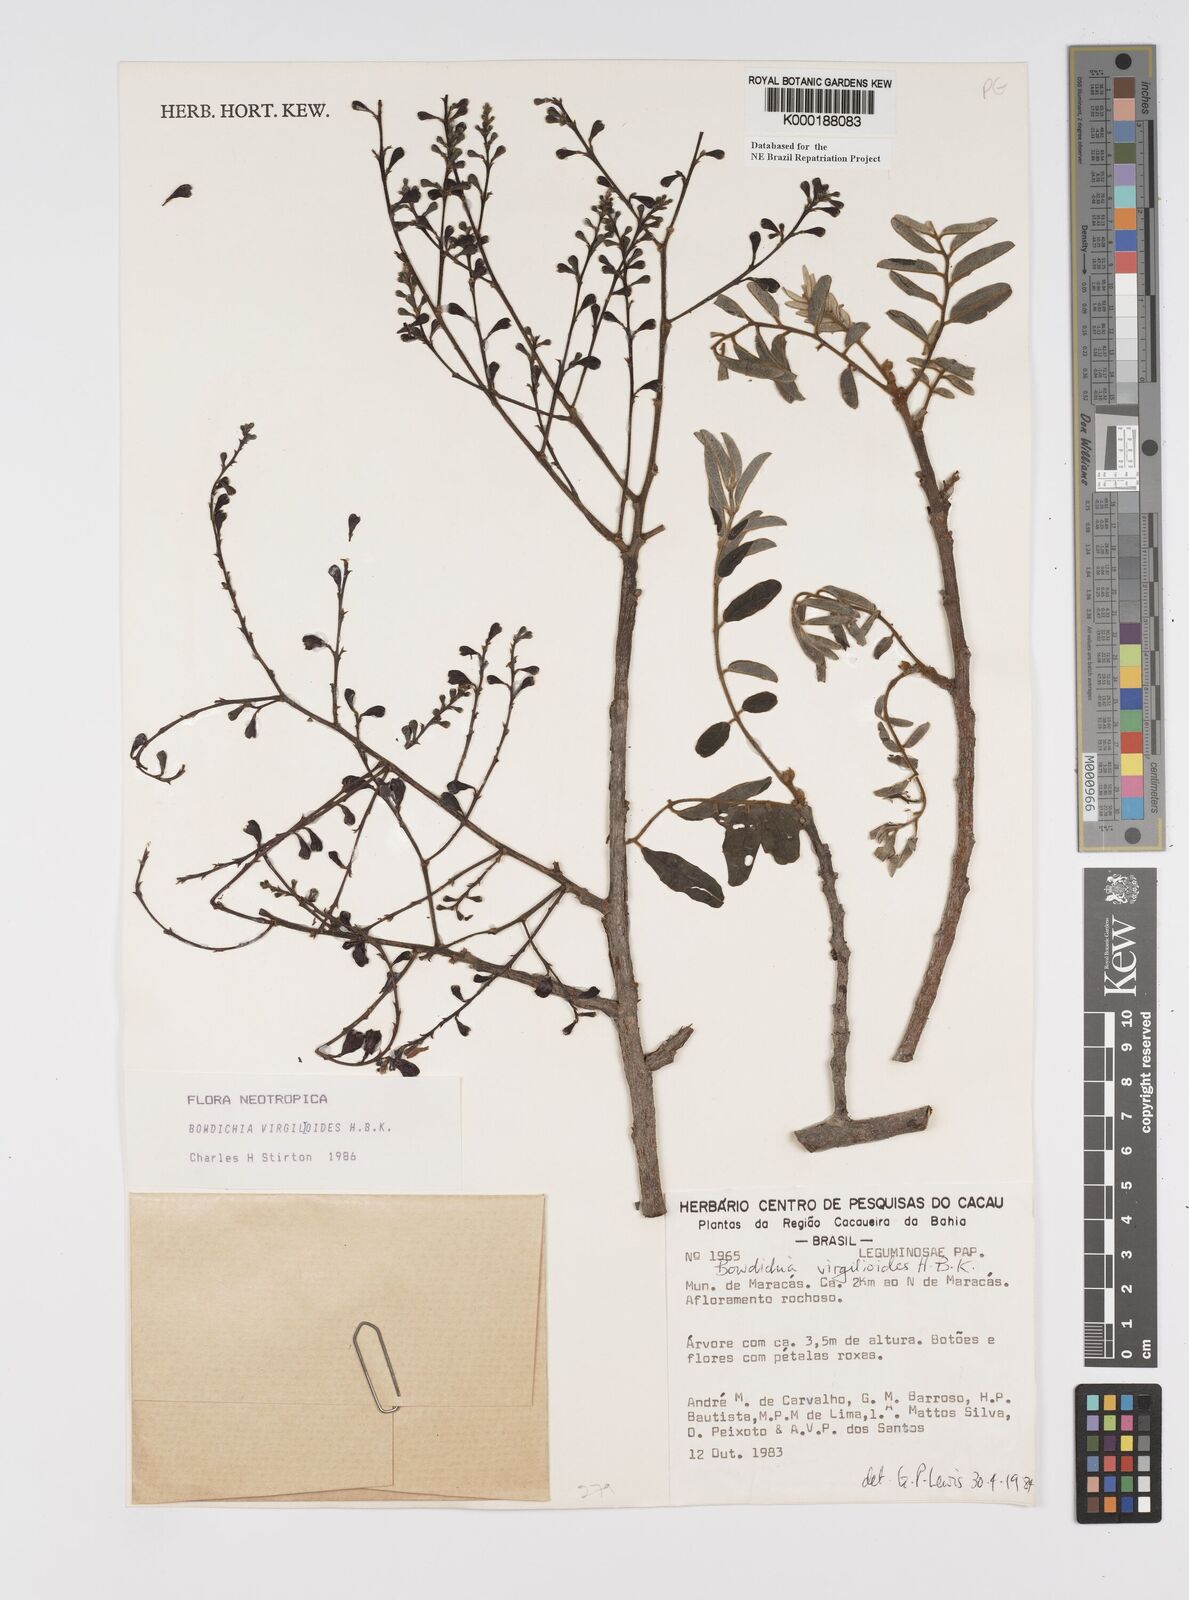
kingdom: Plantae
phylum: Tracheophyta
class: Magnoliopsida
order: Fabales
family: Fabaceae
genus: Bowdichia
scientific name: Bowdichia virgilioides
